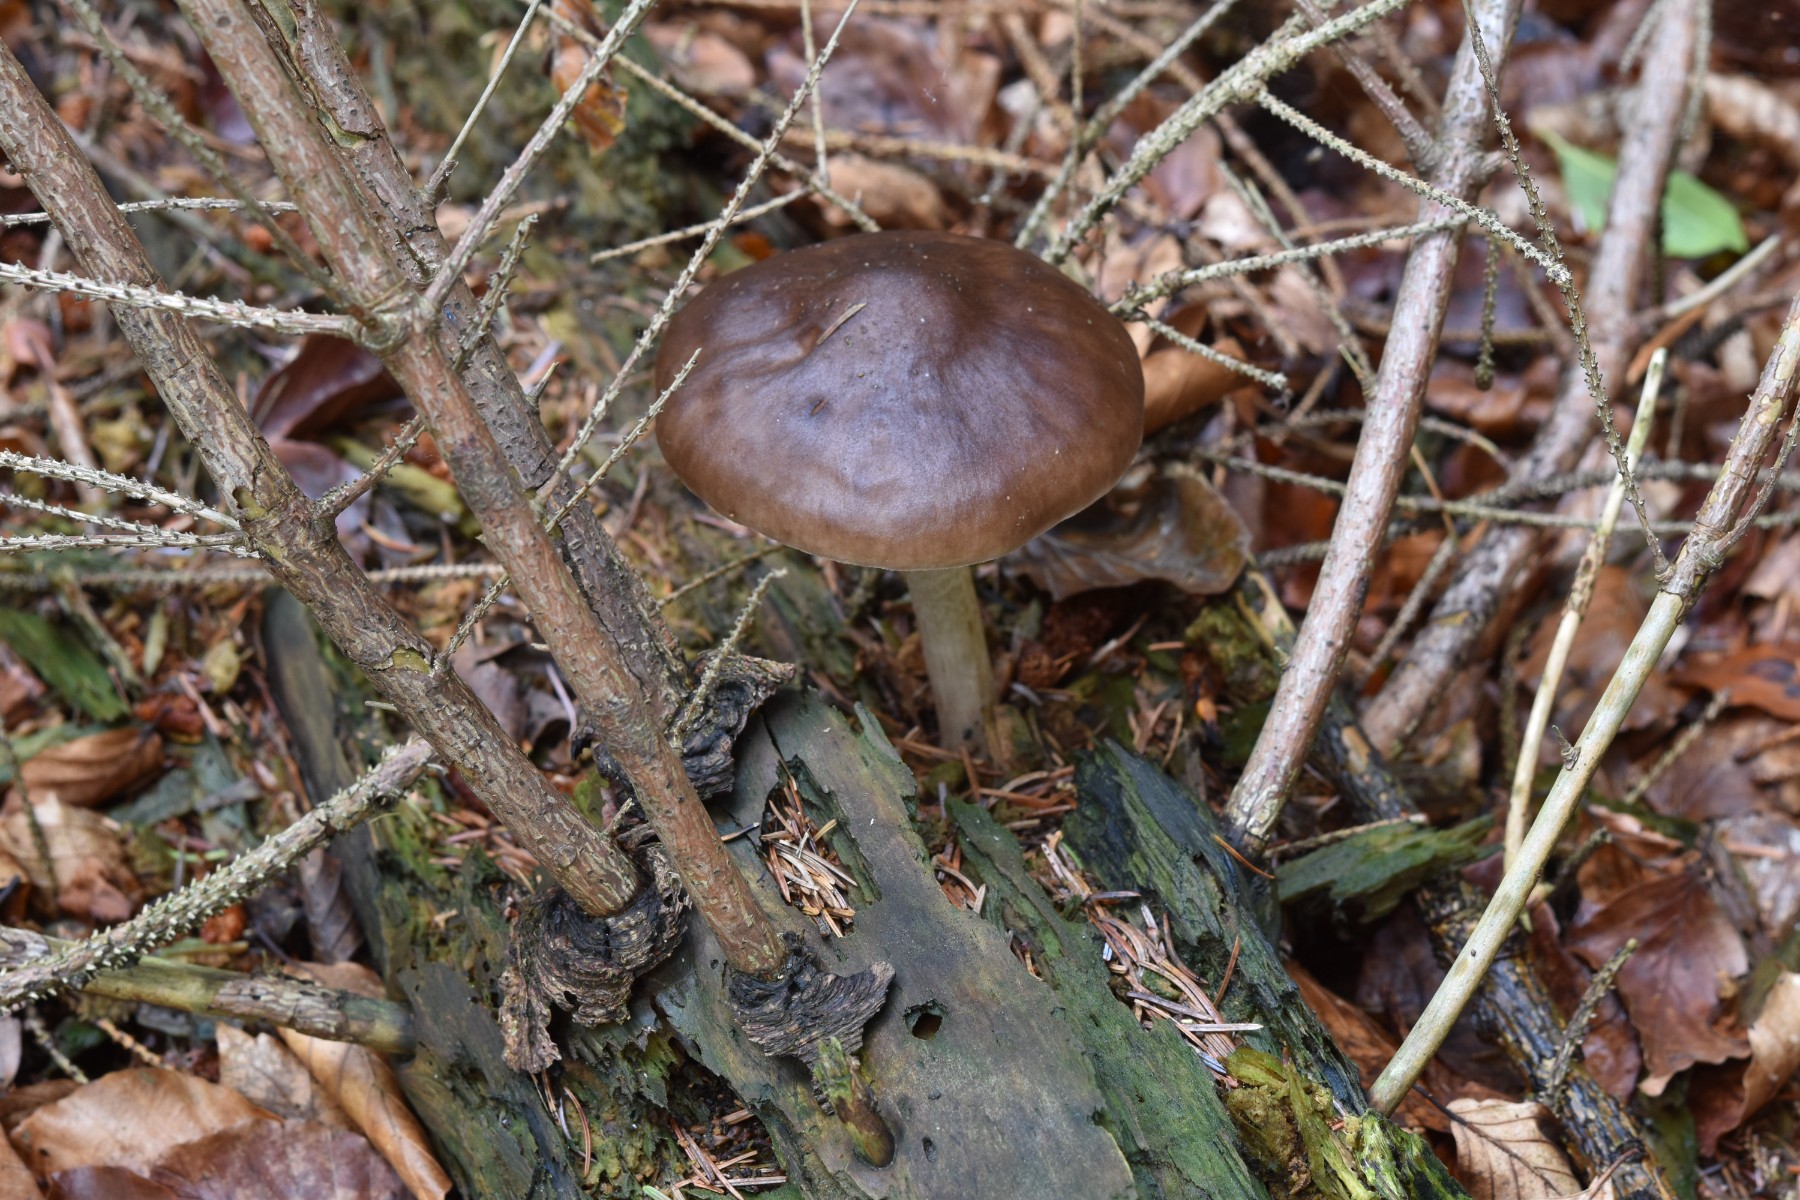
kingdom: Fungi
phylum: Basidiomycota
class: Agaricomycetes
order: Agaricales
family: Pluteaceae
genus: Pluteus
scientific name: Pluteus cervinus
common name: sodfarvet skærmhat
